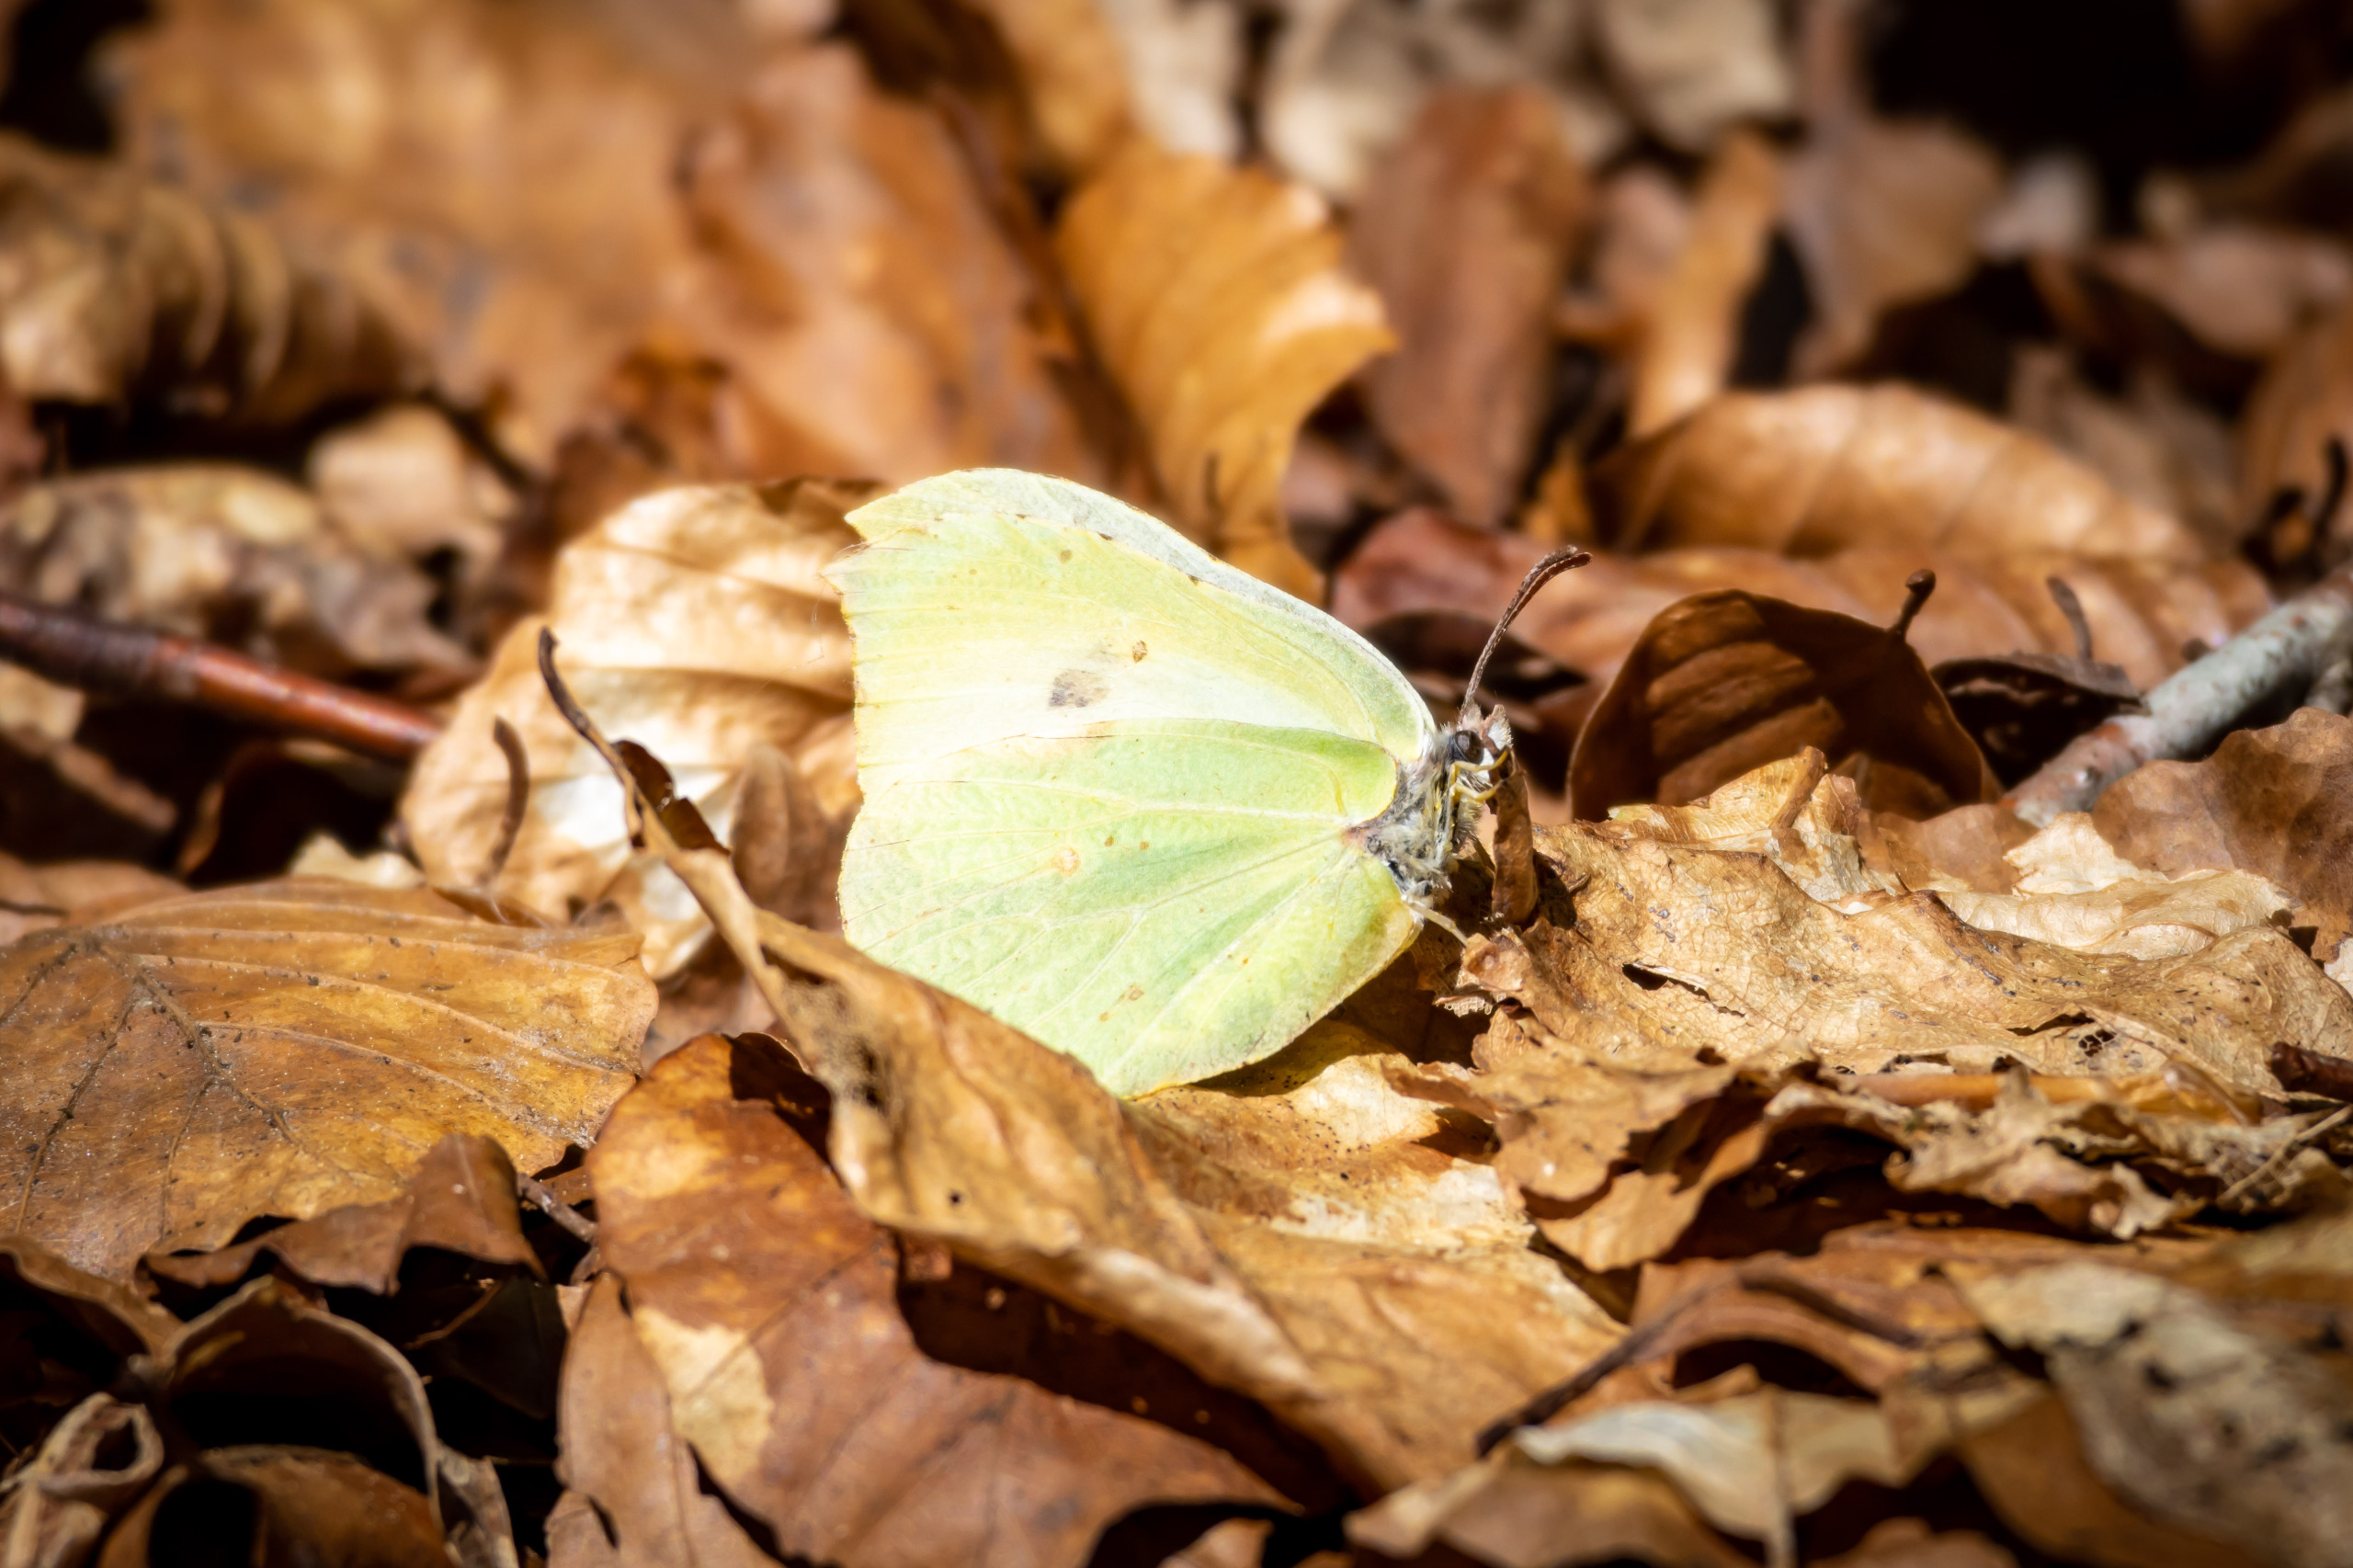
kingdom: Animalia
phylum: Arthropoda
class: Insecta
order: Lepidoptera
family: Pieridae
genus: Gonepteryx
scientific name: Gonepteryx rhamni
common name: Citronsommerfugl
